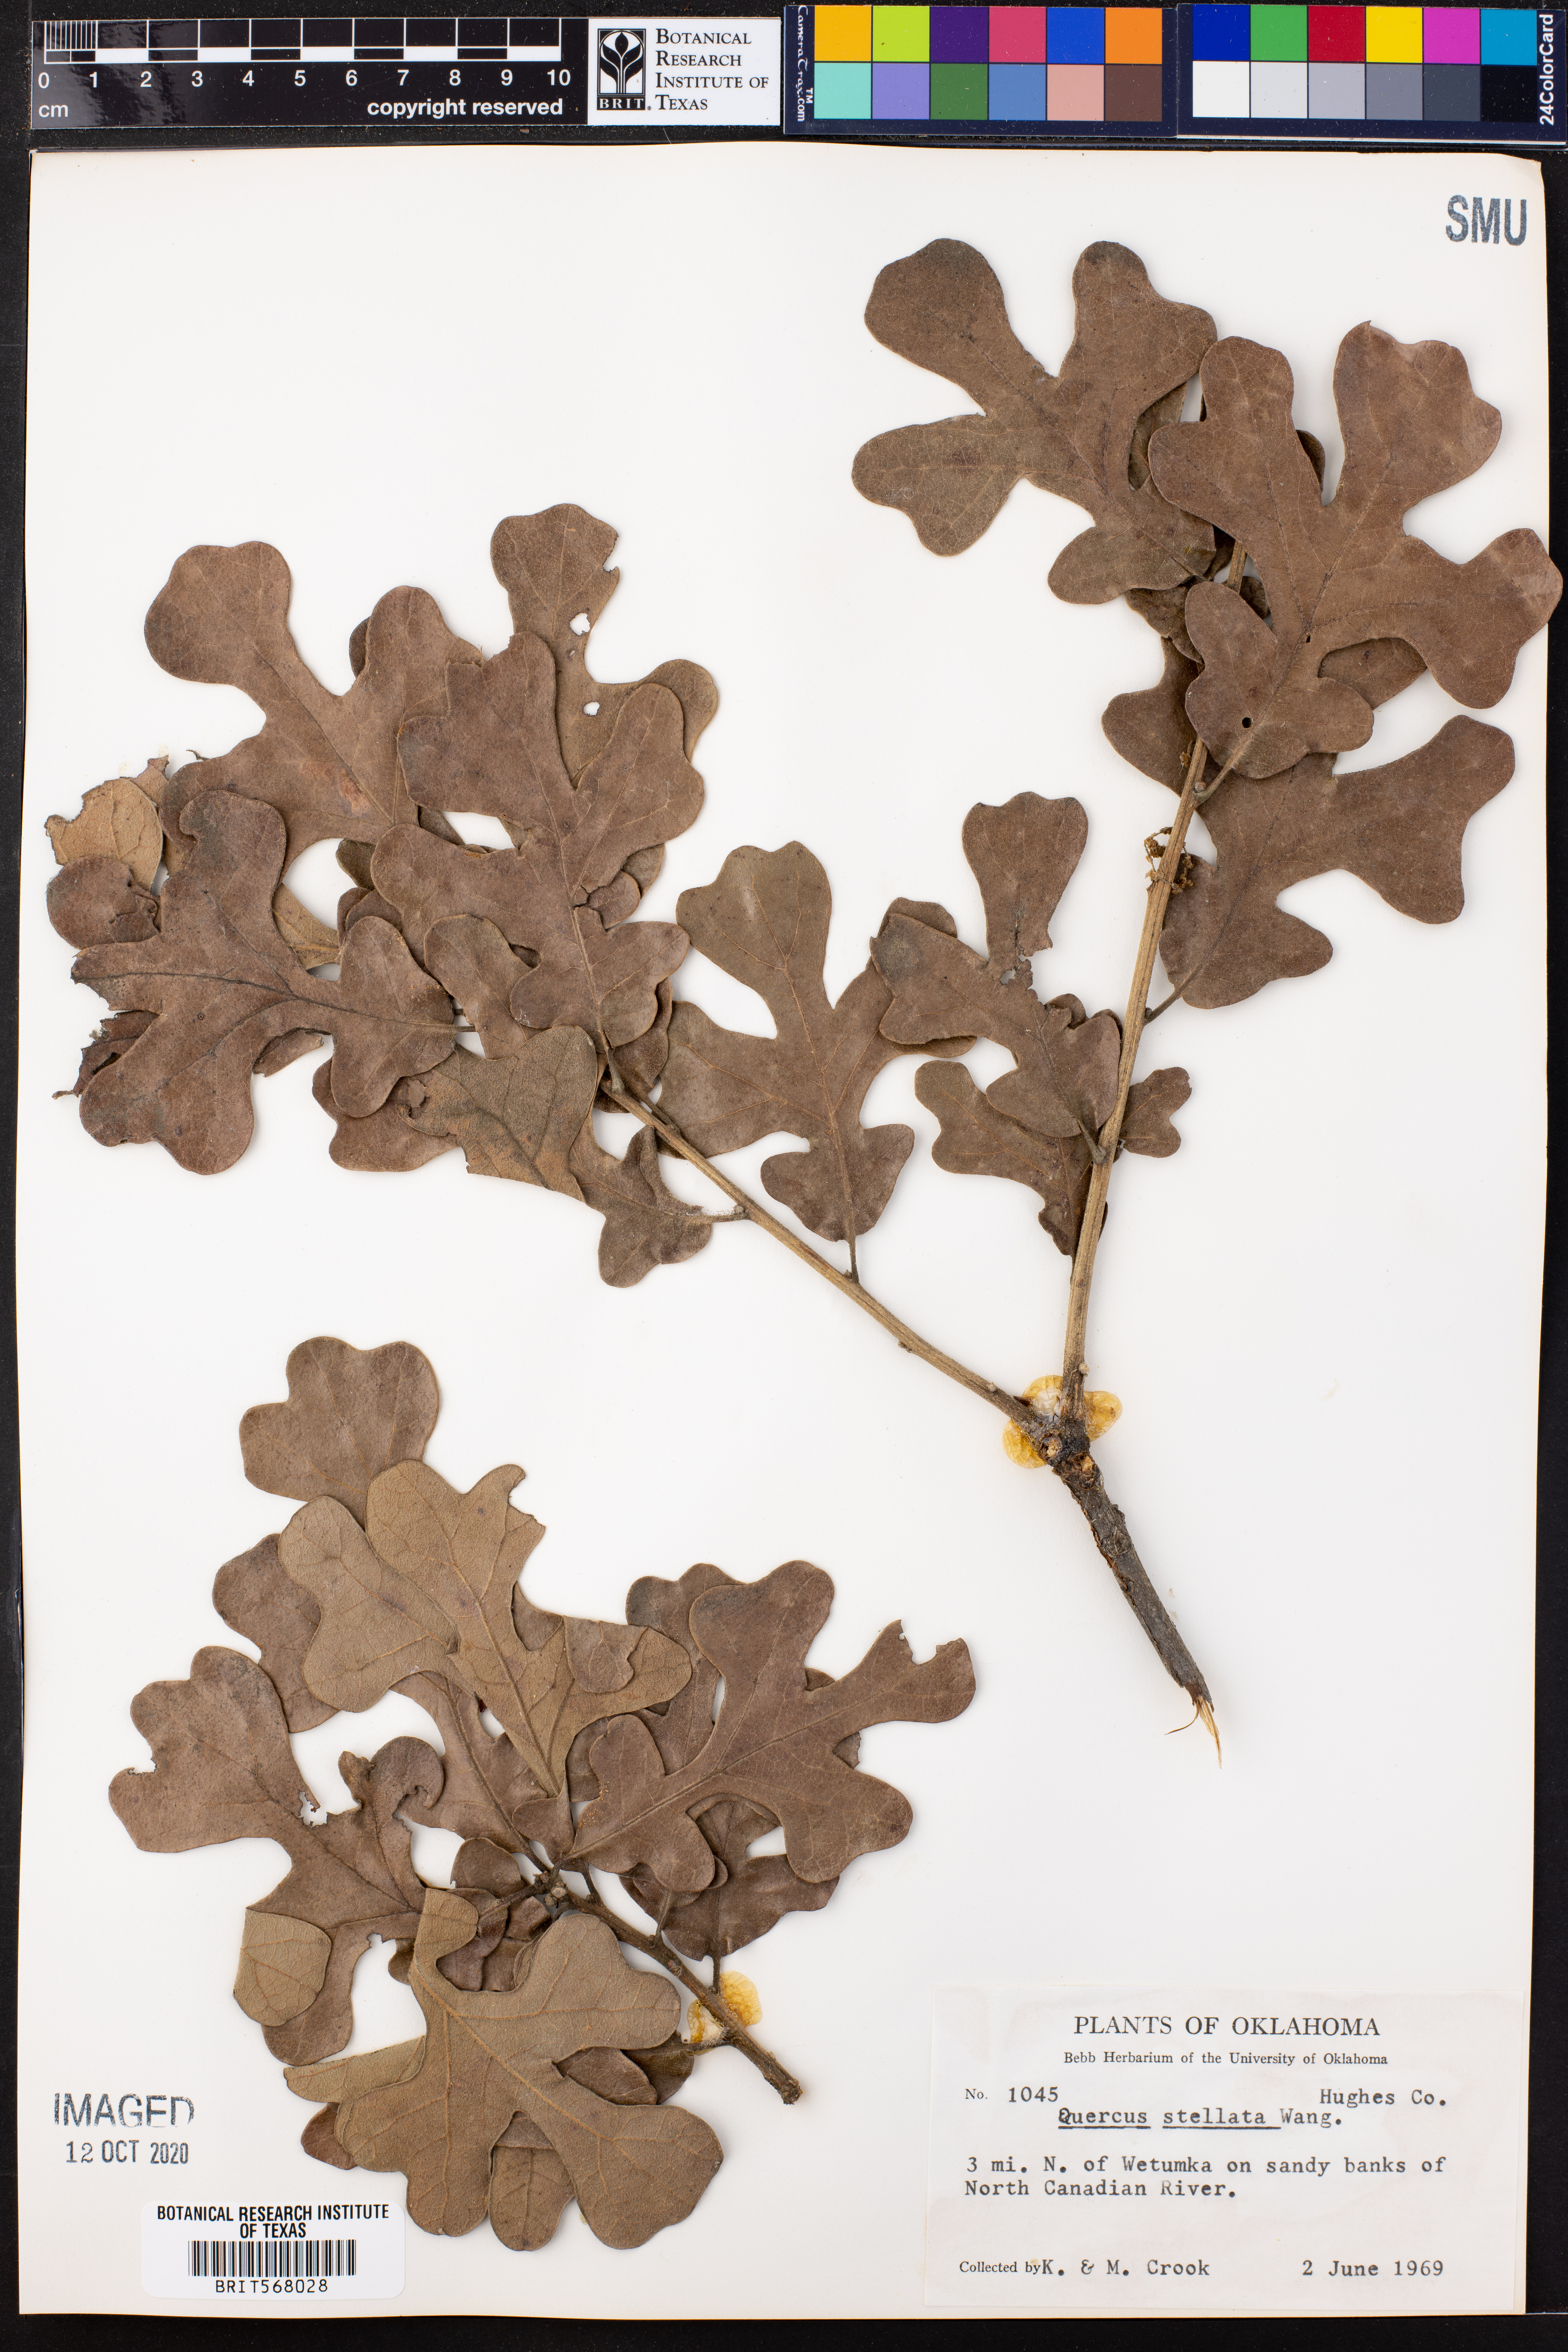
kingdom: Plantae
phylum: Tracheophyta
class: Magnoliopsida
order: Fagales
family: Fagaceae
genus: Quercus
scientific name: Quercus stellata
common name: Post oak
